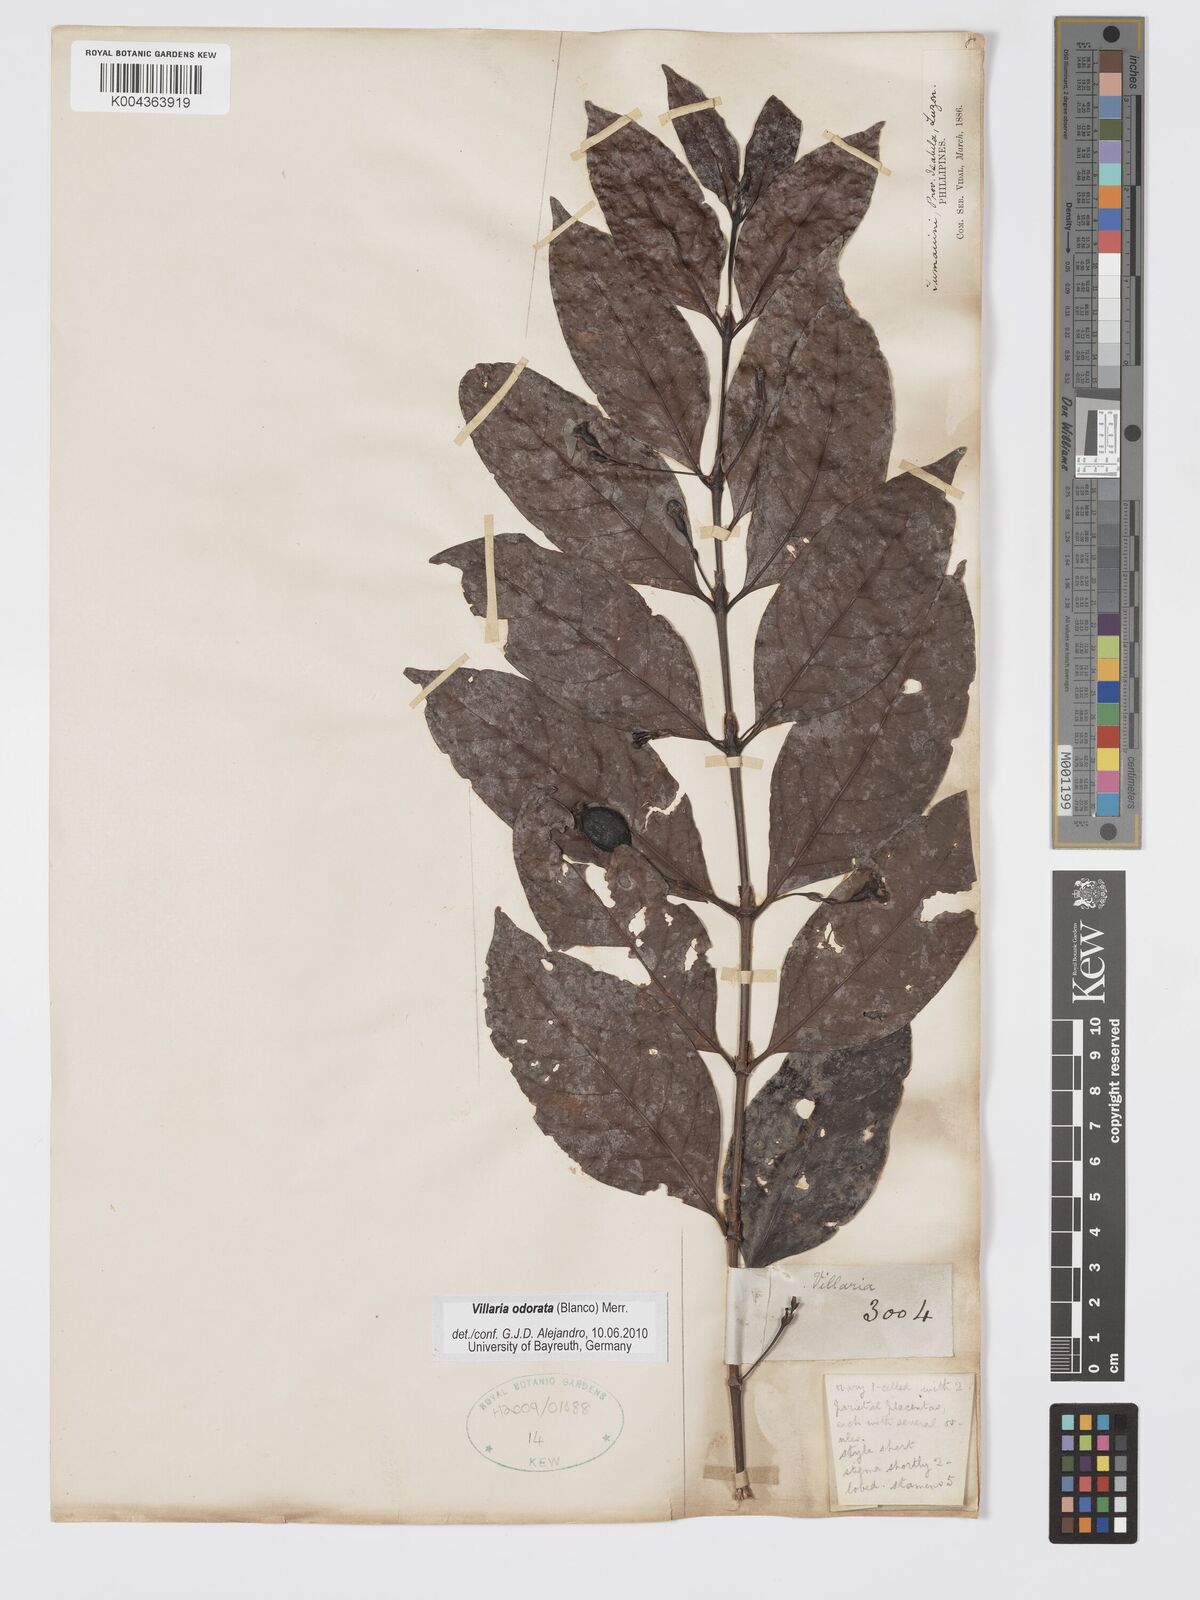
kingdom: Plantae
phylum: Tracheophyta
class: Magnoliopsida
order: Gentianales
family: Rubiaceae
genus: Villaria
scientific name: Villaria odorata
